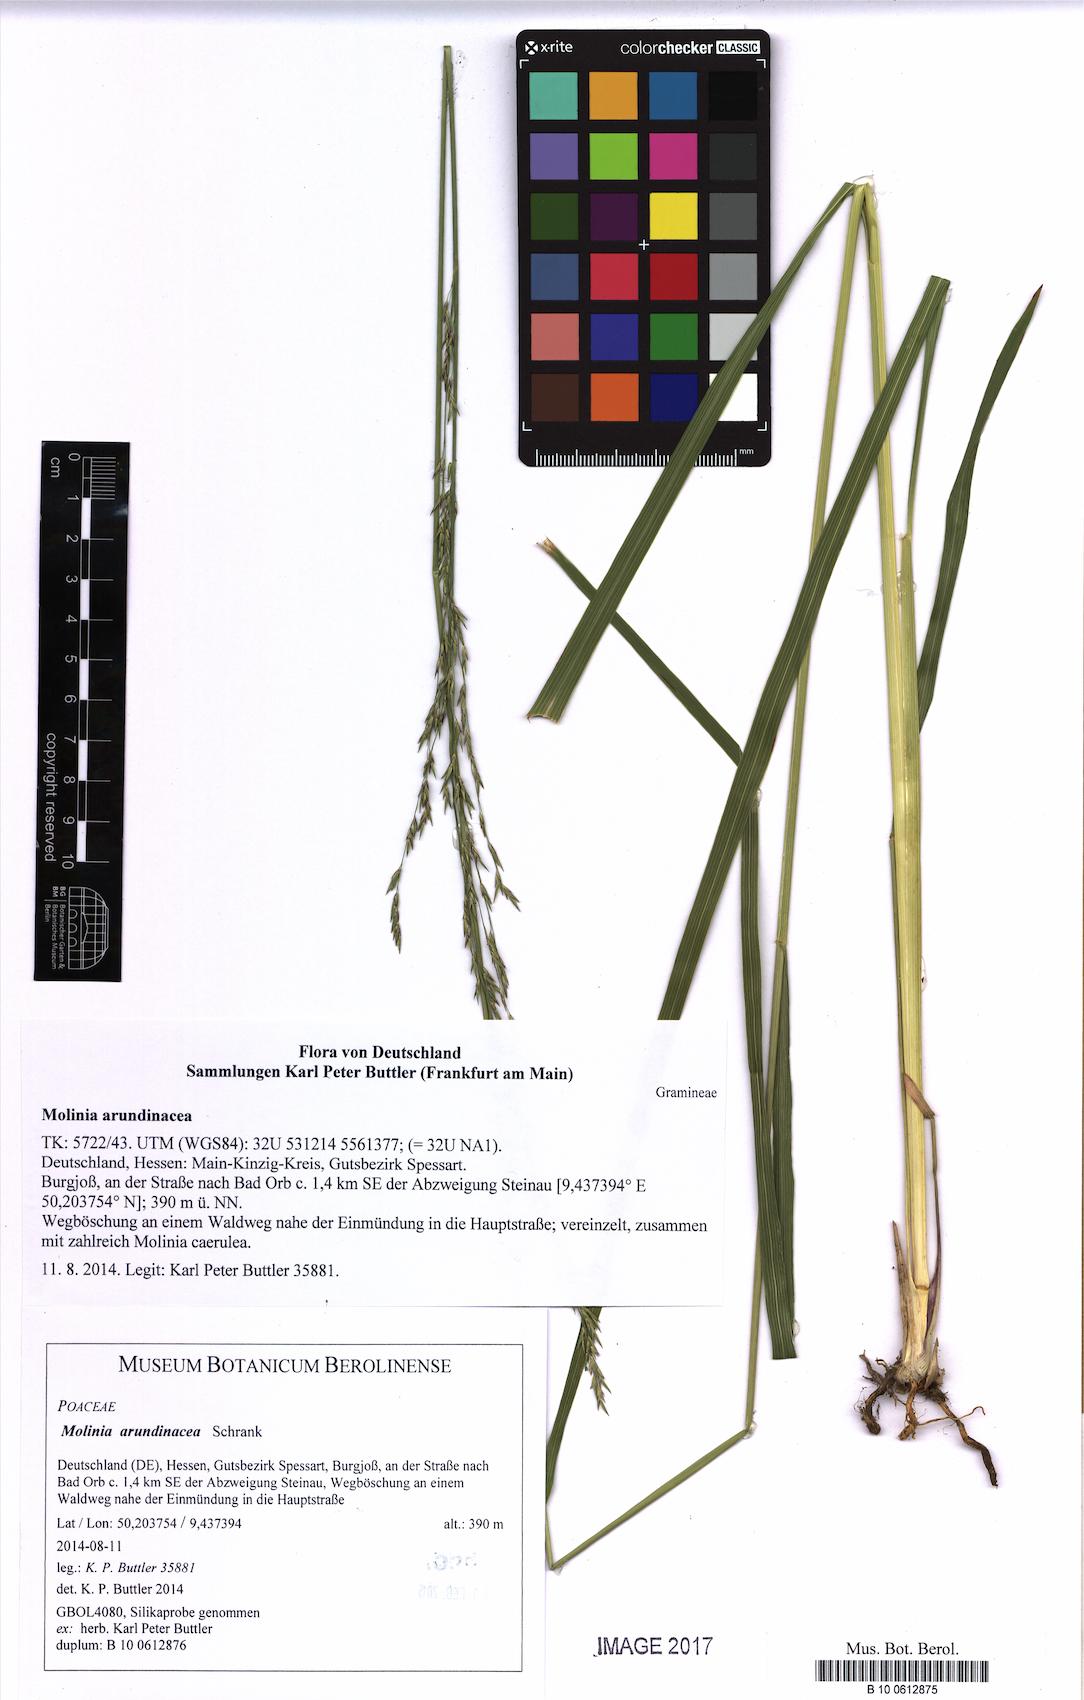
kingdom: Plantae
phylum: Tracheophyta
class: Liliopsida
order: Poales
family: Poaceae
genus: Molinia
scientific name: Molinia arundinacea
